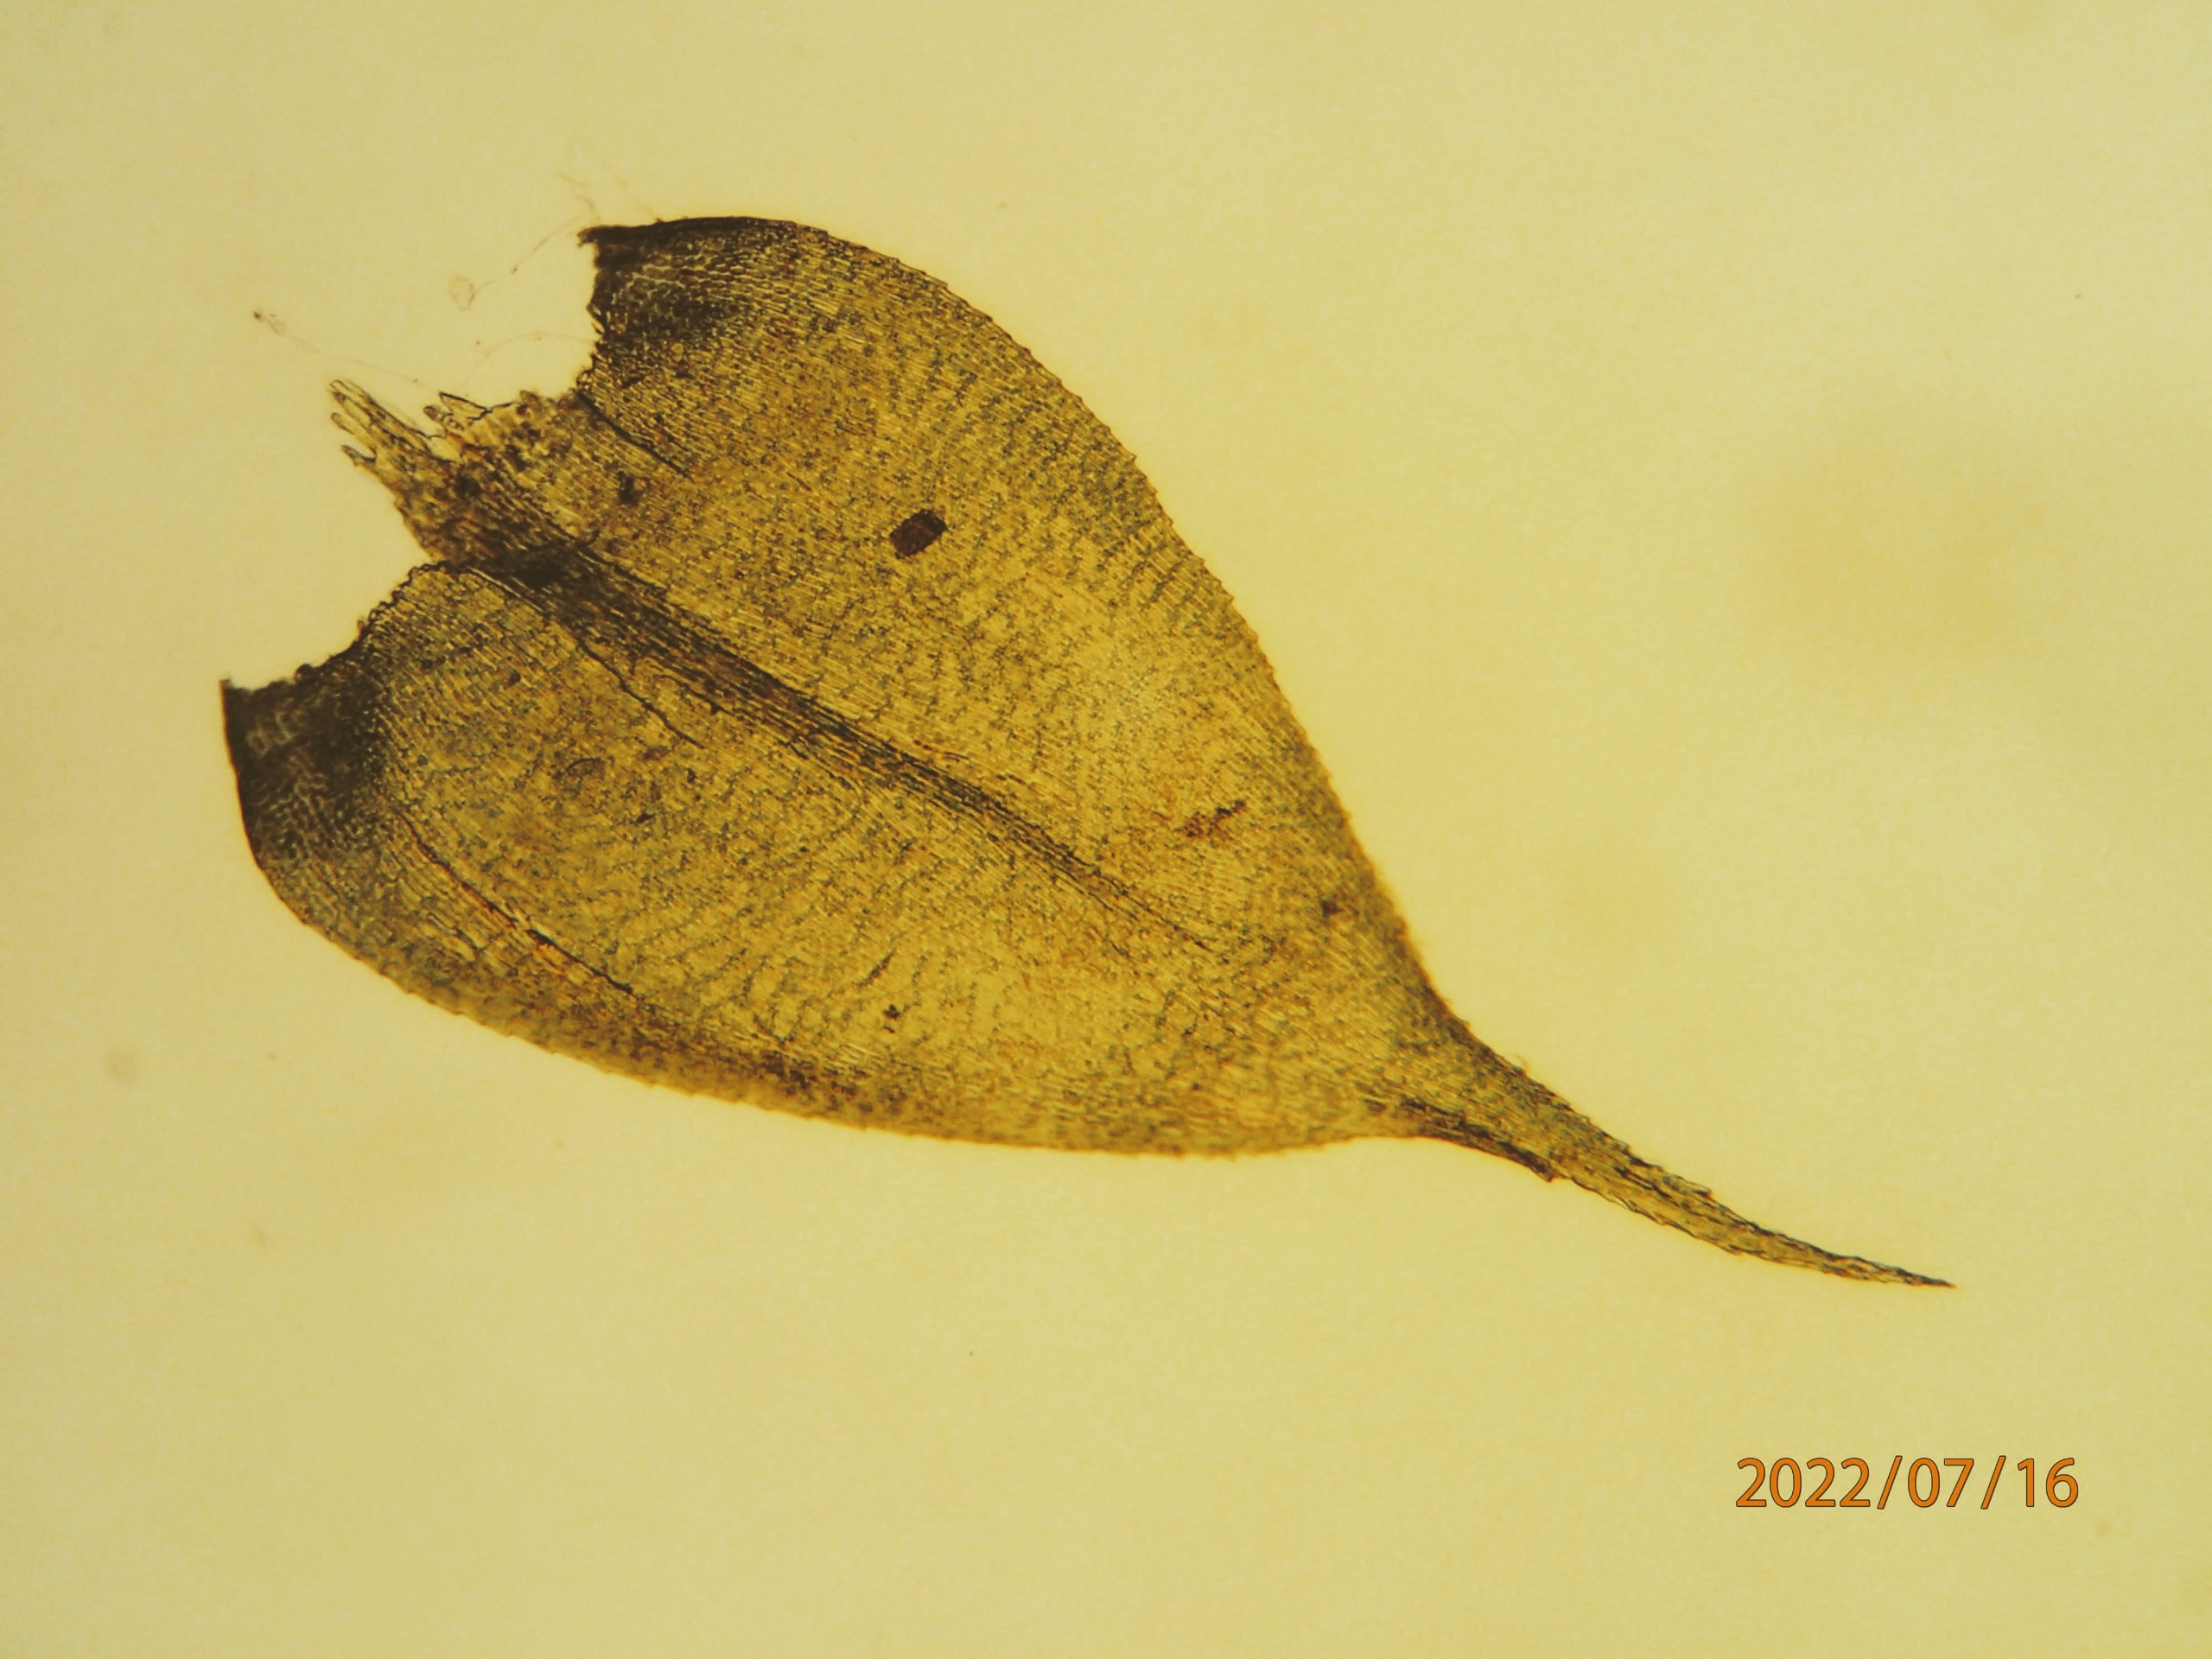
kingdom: Plantae
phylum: Bryophyta
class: Bryopsida
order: Hypnales
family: Lembophyllaceae
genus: Pseudisothecium
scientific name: Pseudisothecium myosuroides
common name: Slank stammemos
